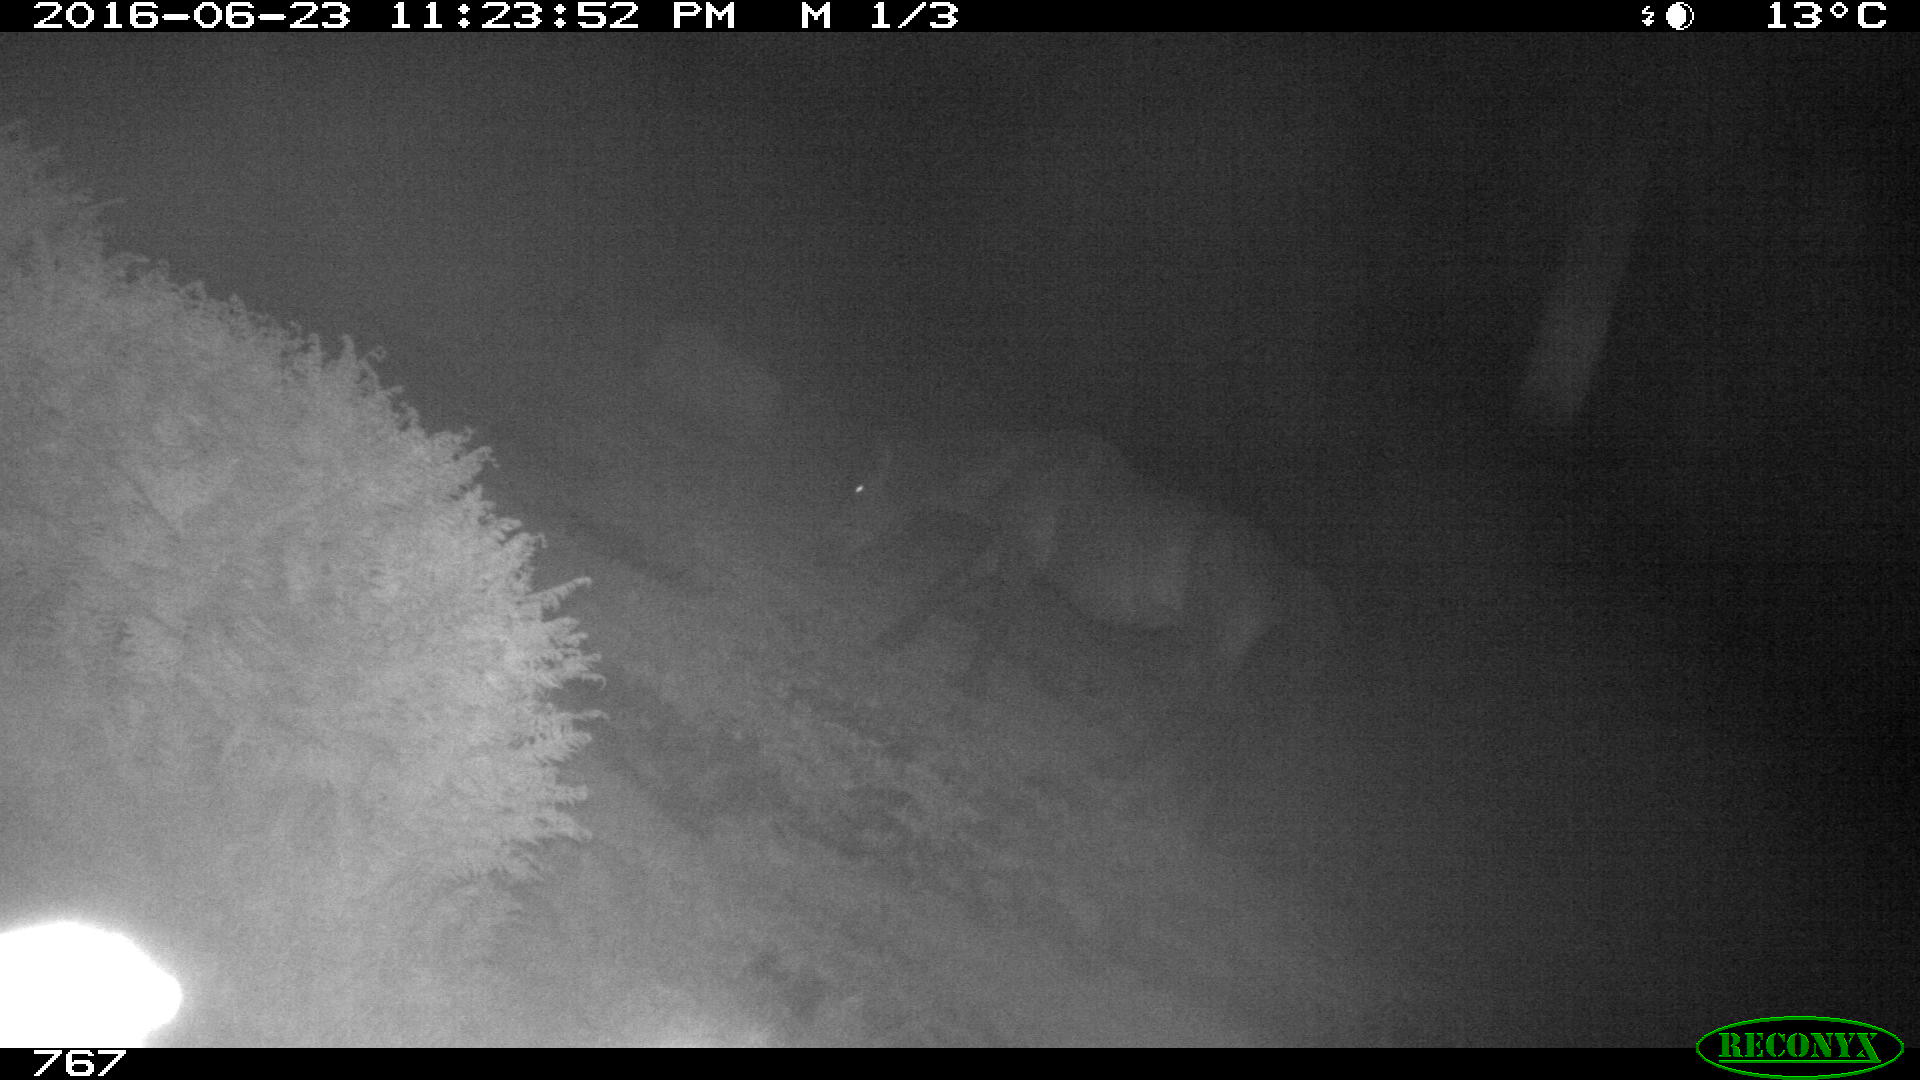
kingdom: Animalia
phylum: Chordata
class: Mammalia
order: Perissodactyla
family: Equidae
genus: Equus
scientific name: Equus caballus
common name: Horse
